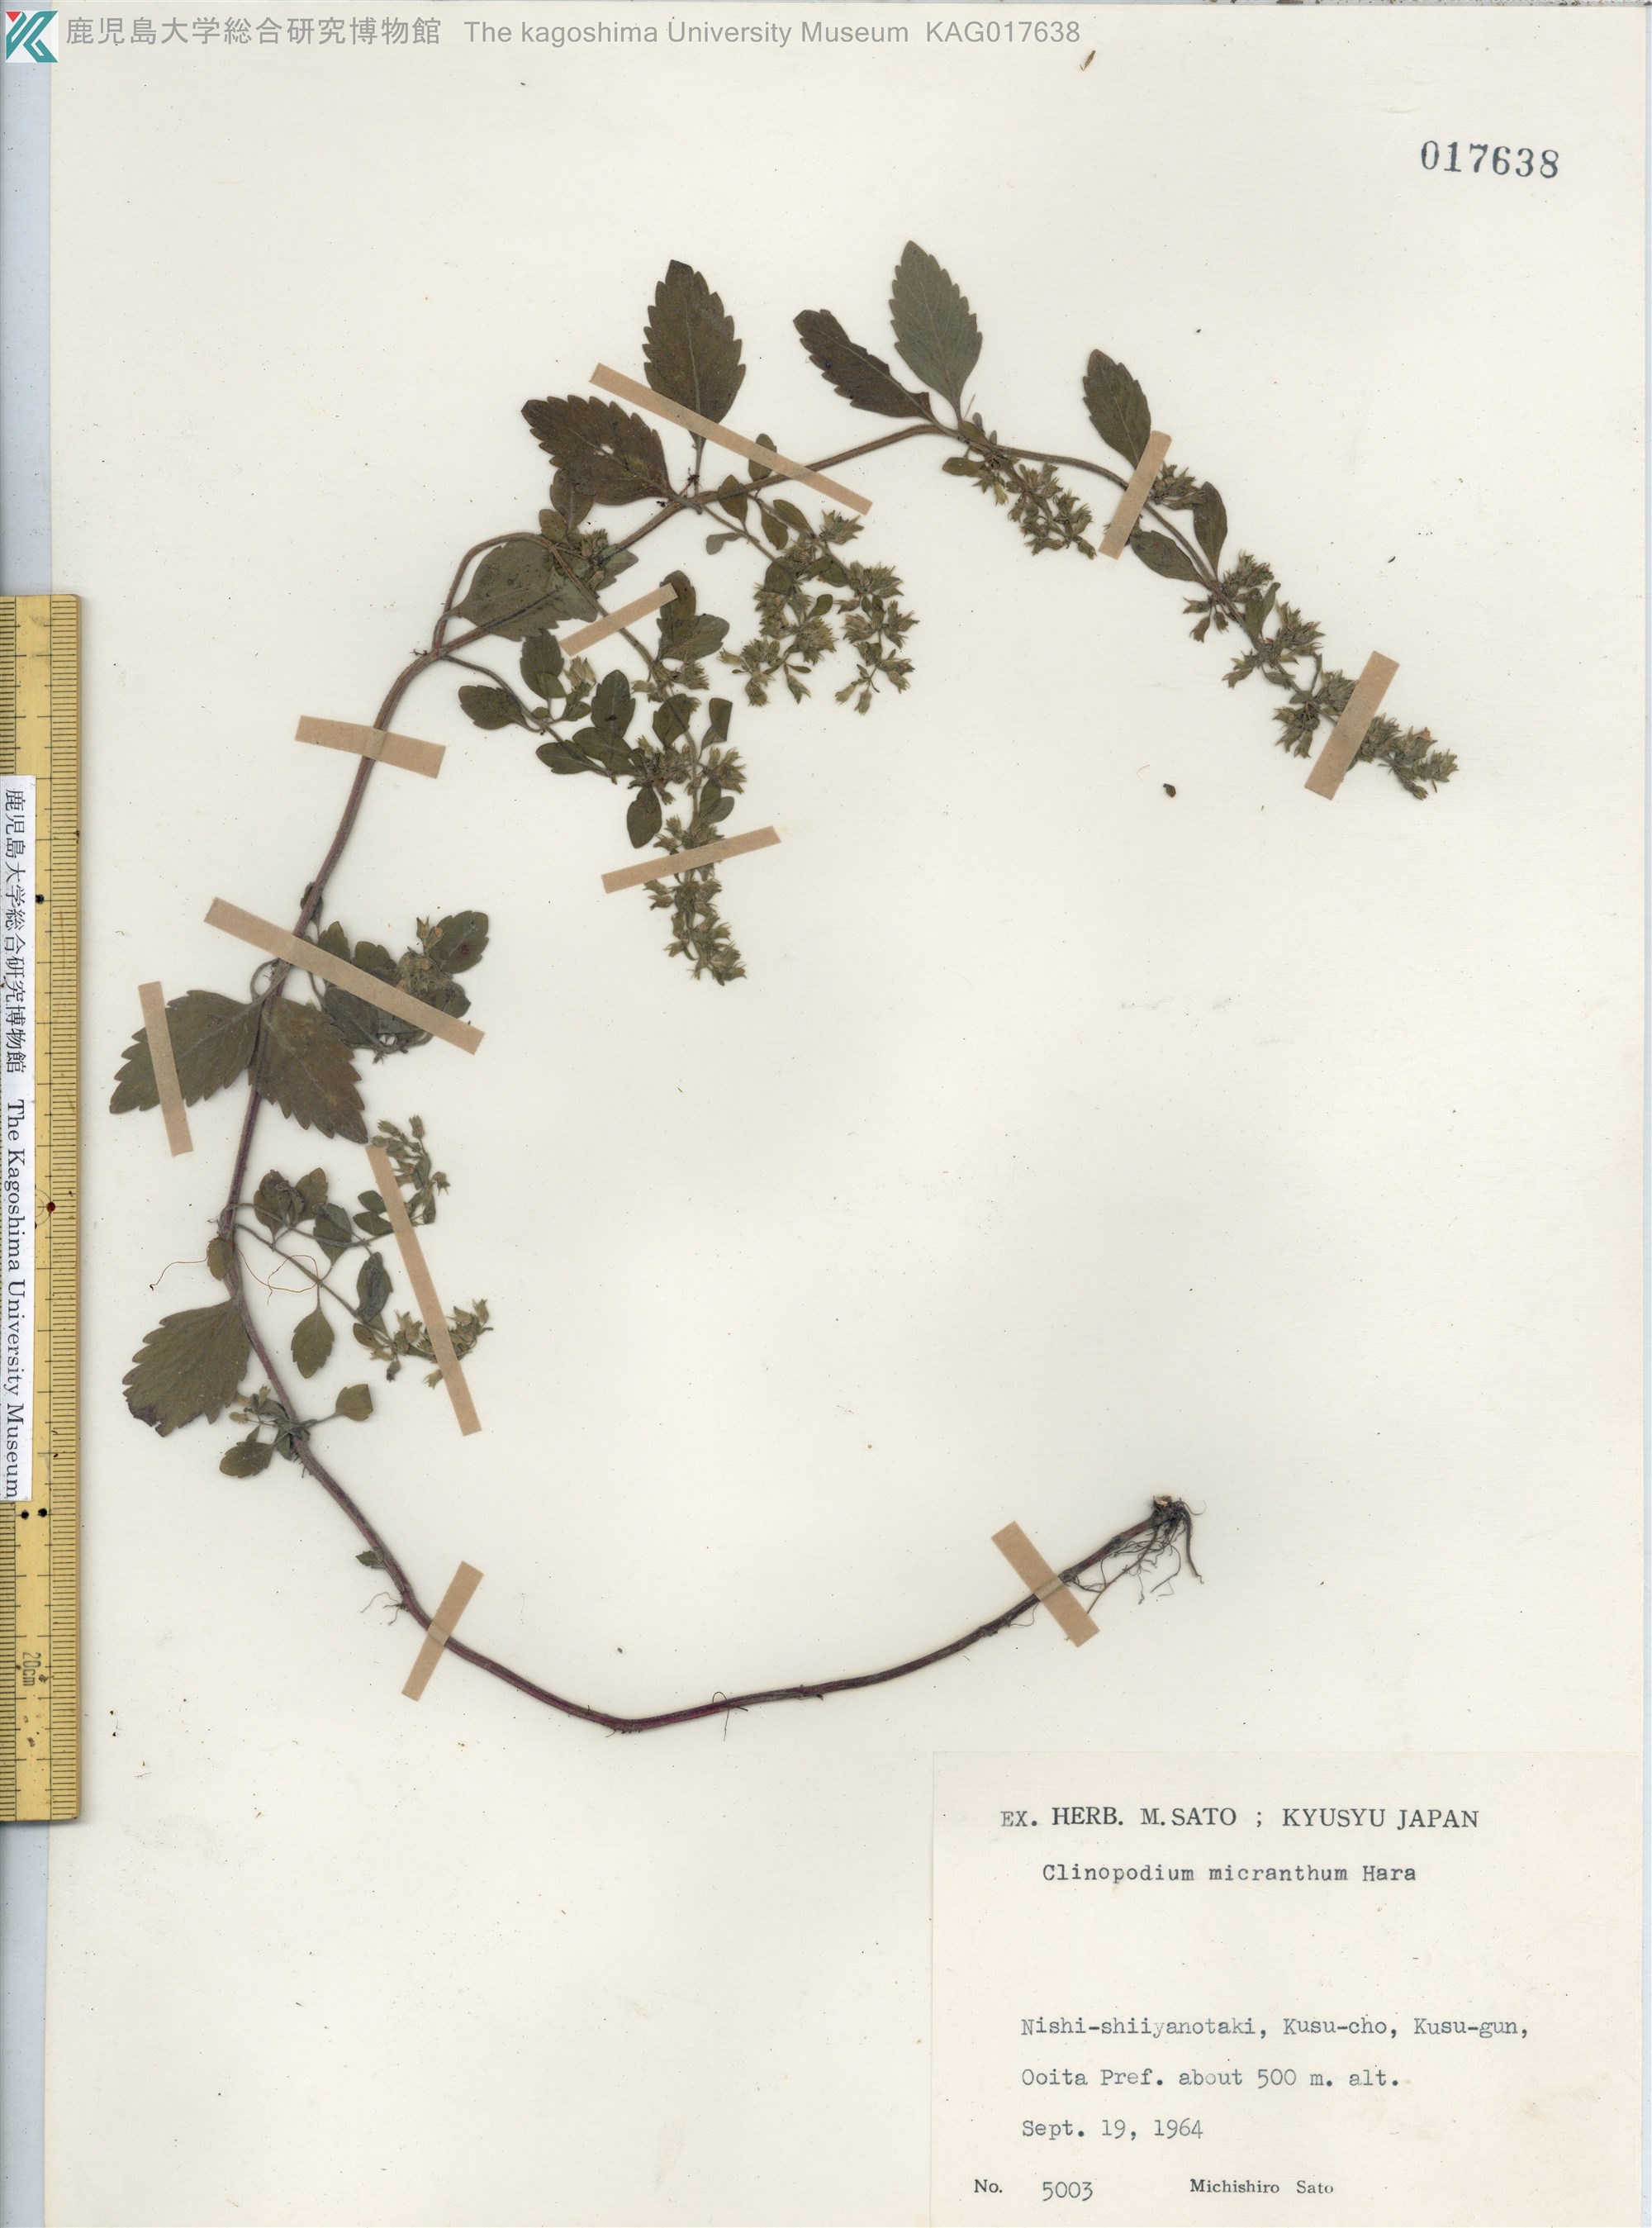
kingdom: Plantae
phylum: Tracheophyta
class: Magnoliopsida
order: Lamiales
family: Lamiaceae
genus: Clinopodium
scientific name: Clinopodium micranthum
